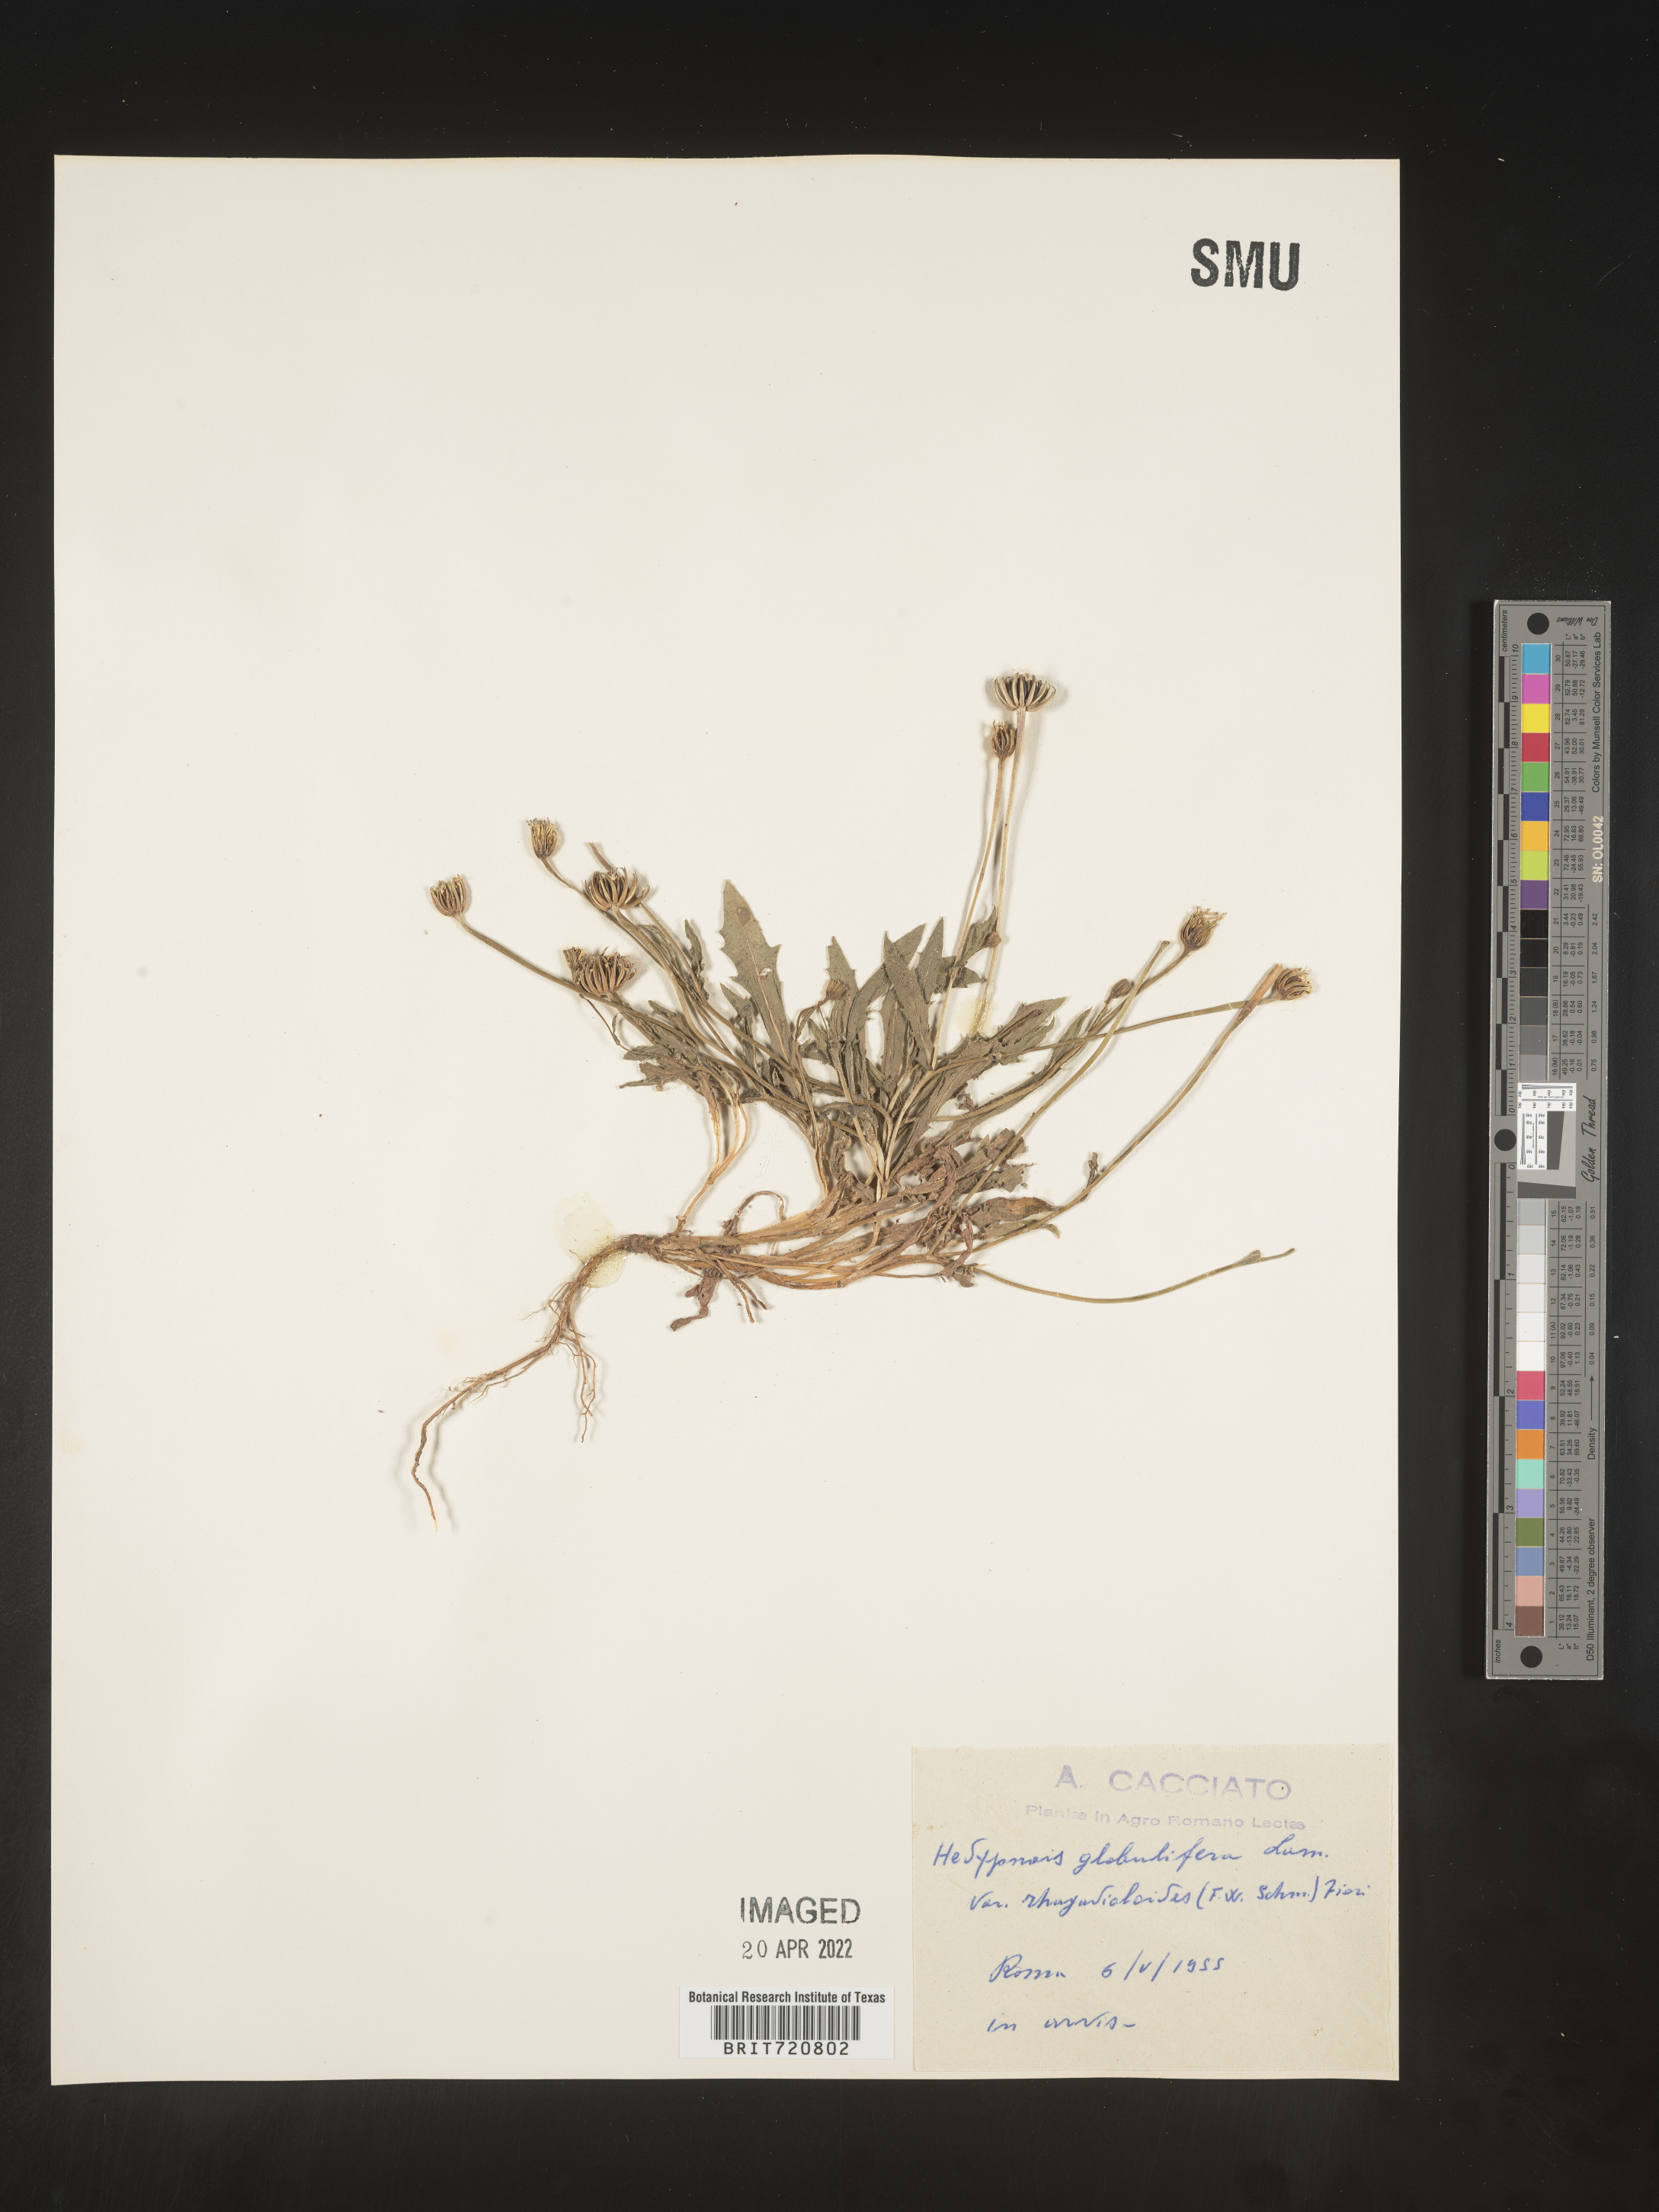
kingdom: Plantae
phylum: Tracheophyta
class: Magnoliopsida
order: Asterales
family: Asteraceae
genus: Hedypnois
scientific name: Hedypnois
